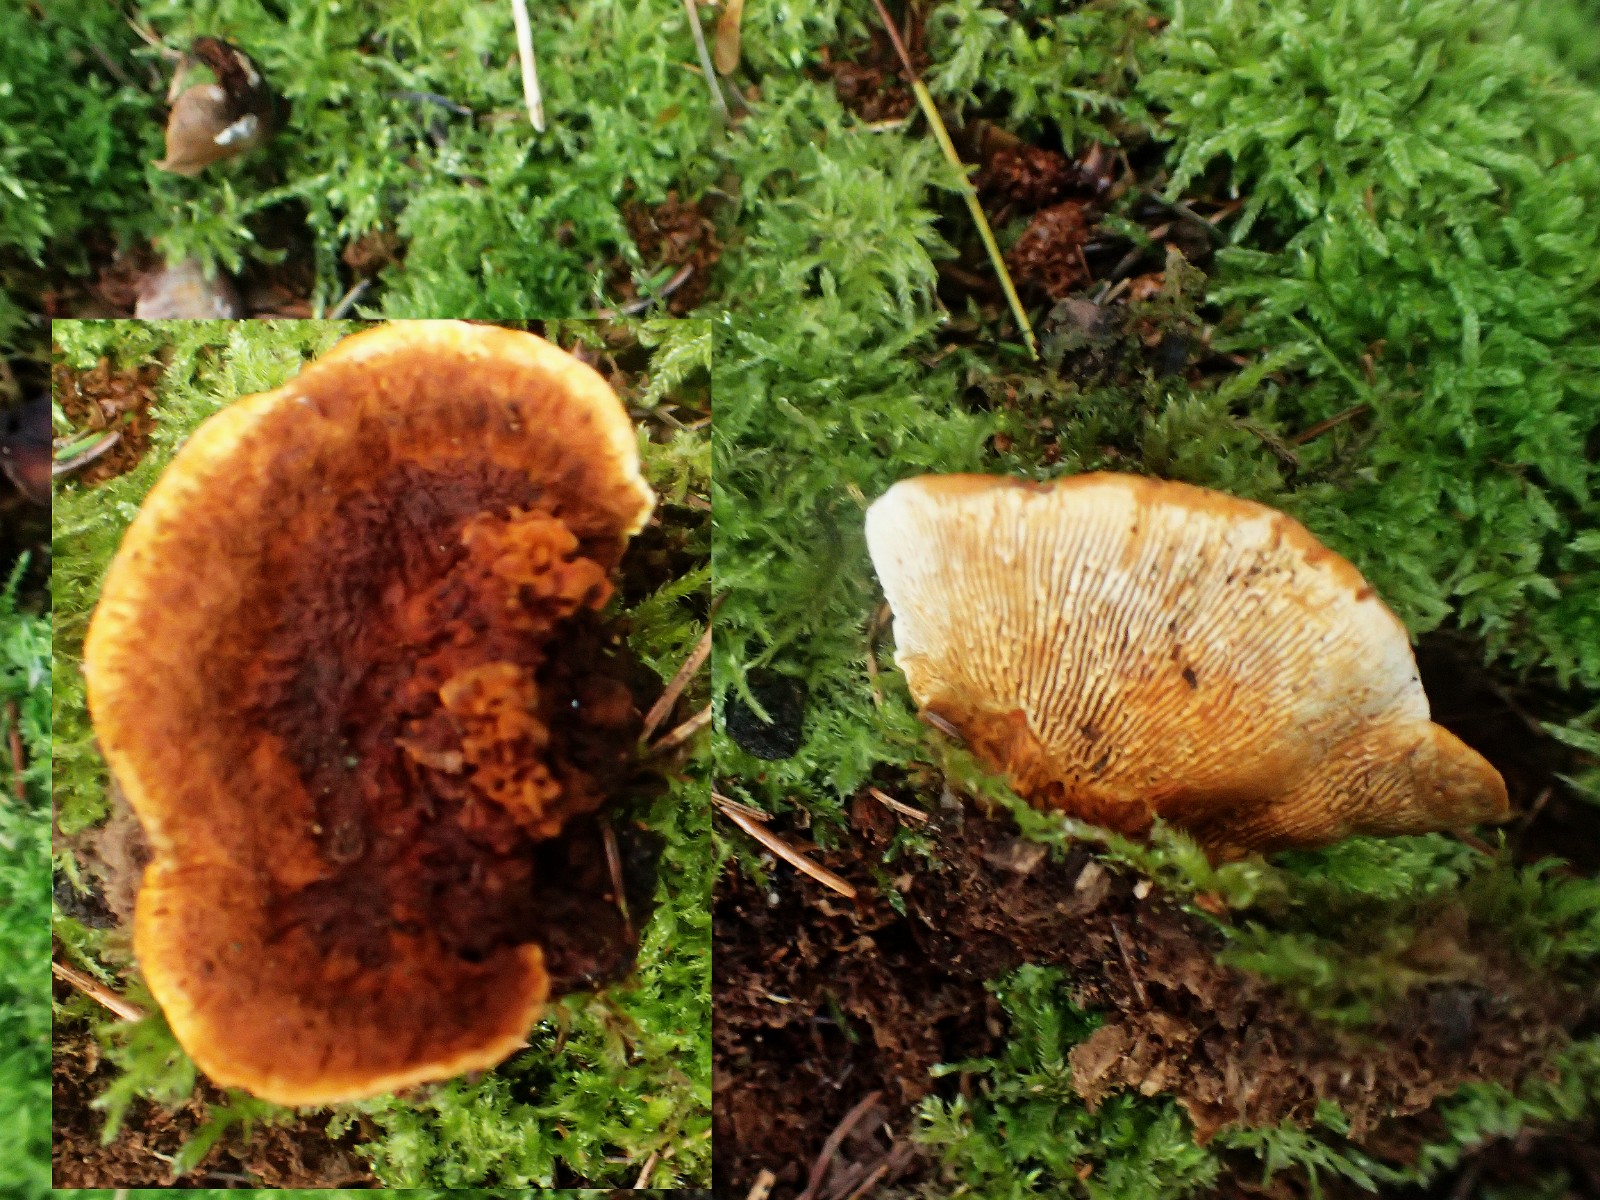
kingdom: Fungi
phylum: Basidiomycota
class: Agaricomycetes
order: Gloeophyllales
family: Gloeophyllaceae
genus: Gloeophyllum
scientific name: Gloeophyllum sepiarium
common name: fyrre-korkhat
